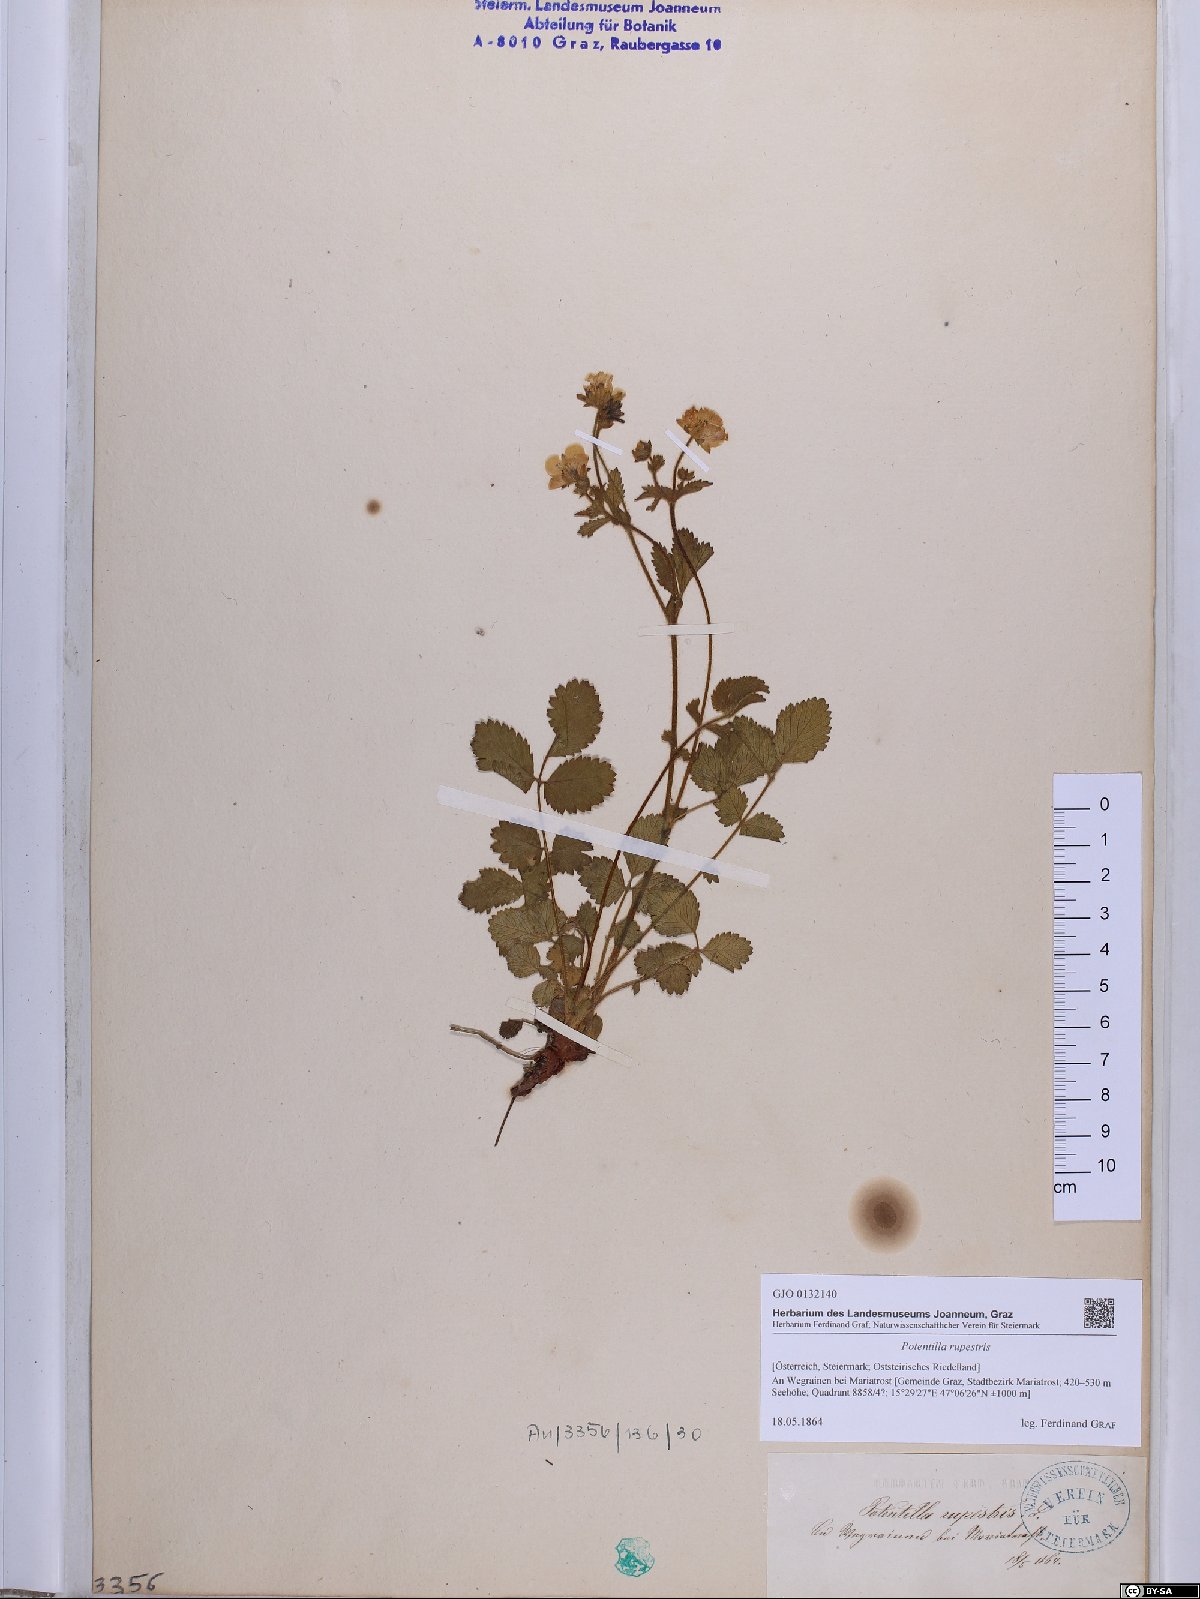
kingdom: Plantae
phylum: Tracheophyta
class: Magnoliopsida
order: Rosales
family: Rosaceae
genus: Drymocallis
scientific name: Drymocallis rupestris
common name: Rock cinquefoil
